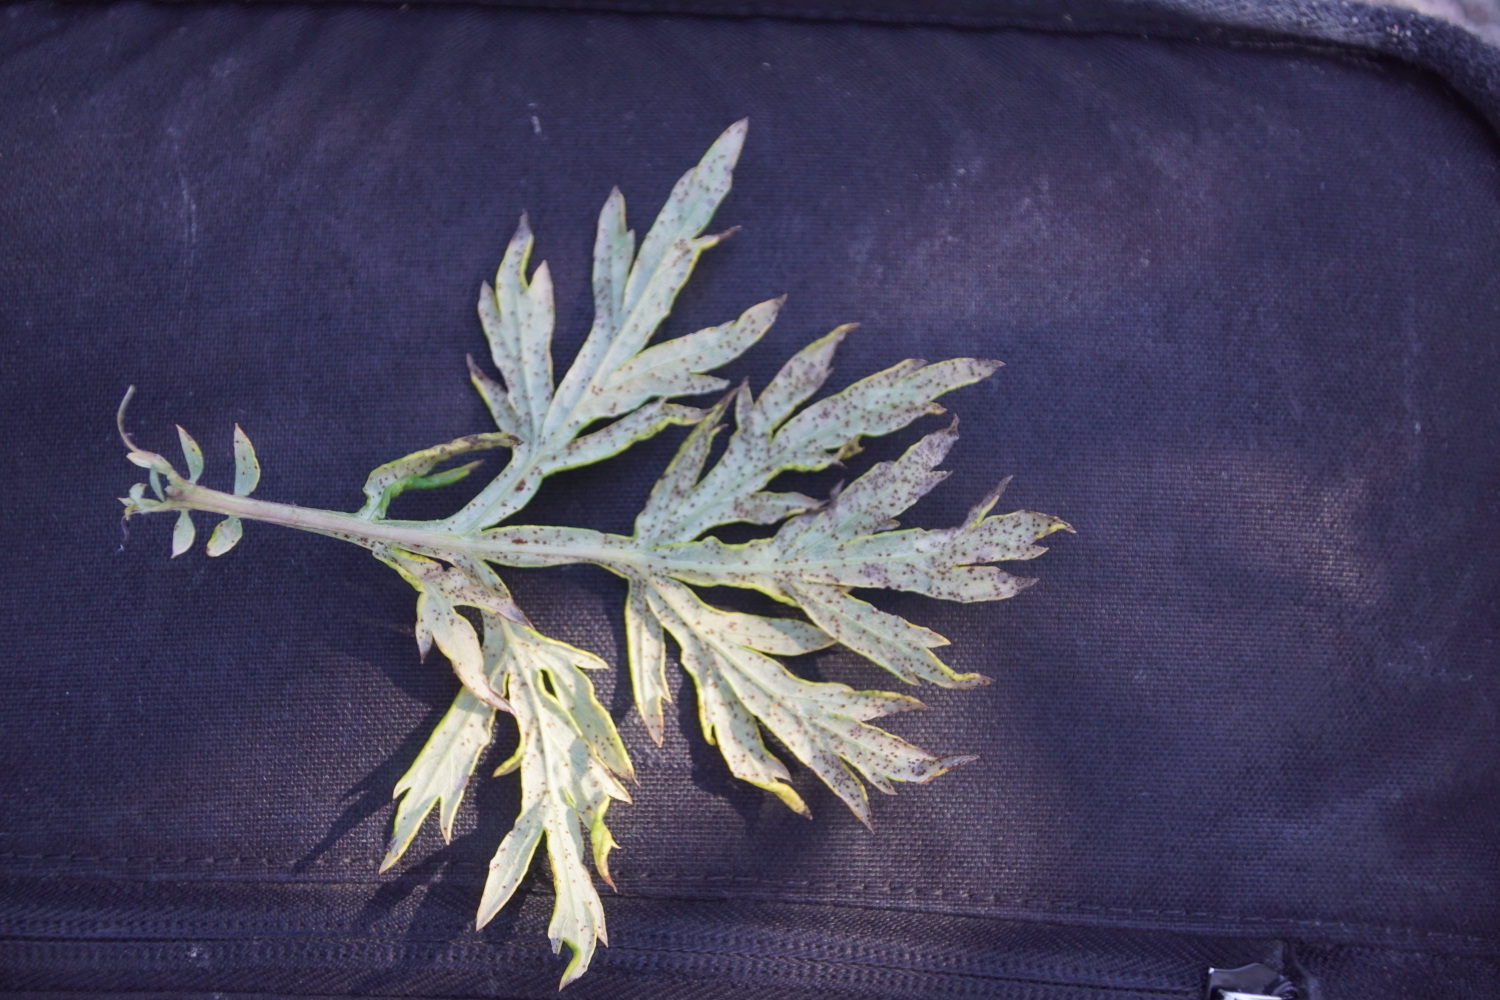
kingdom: Fungi
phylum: Basidiomycota
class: Pucciniomycetes
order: Pucciniales
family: Pucciniaceae
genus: Puccinia
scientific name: Puccinia tanaceti
